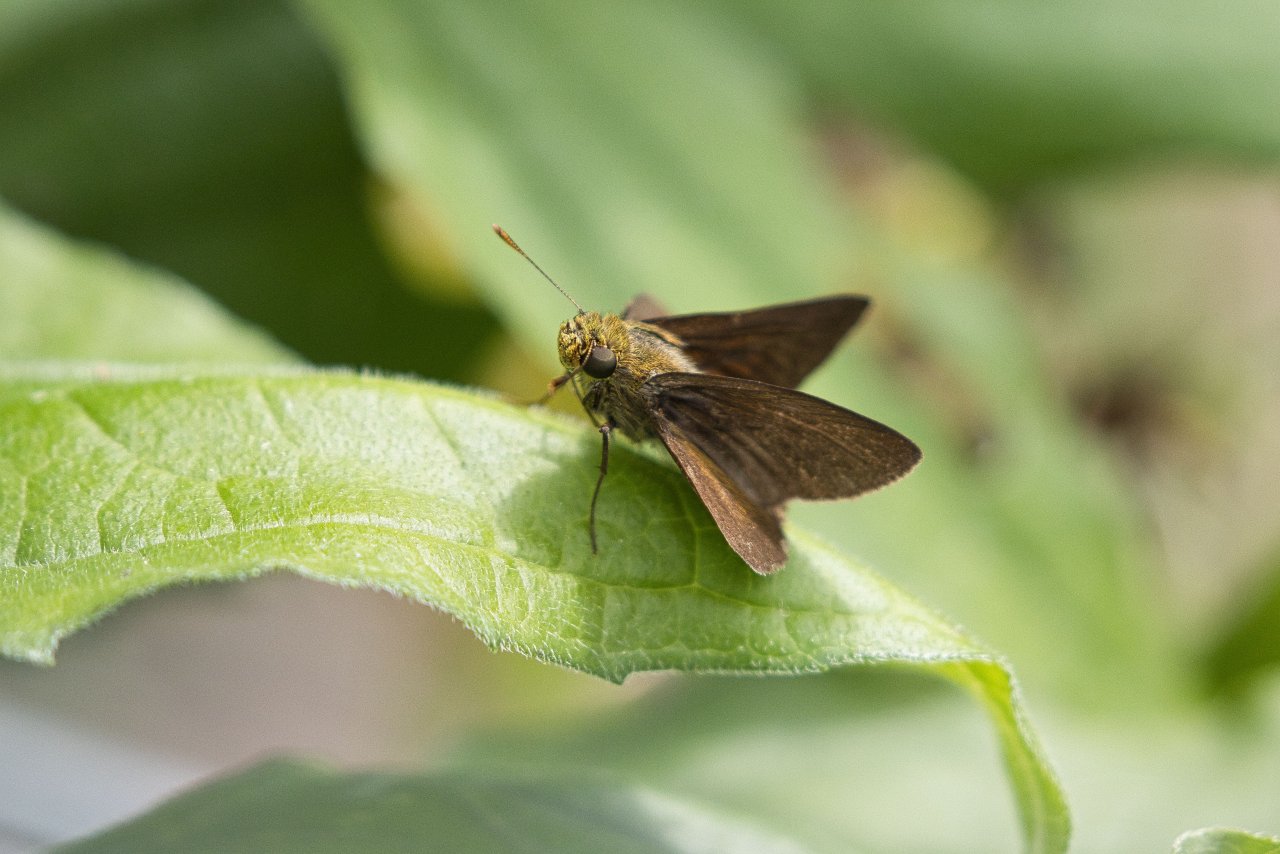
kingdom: Animalia
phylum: Arthropoda
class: Insecta
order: Lepidoptera
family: Hesperiidae
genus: Euphyes
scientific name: Euphyes vestris
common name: Dun Skipper
